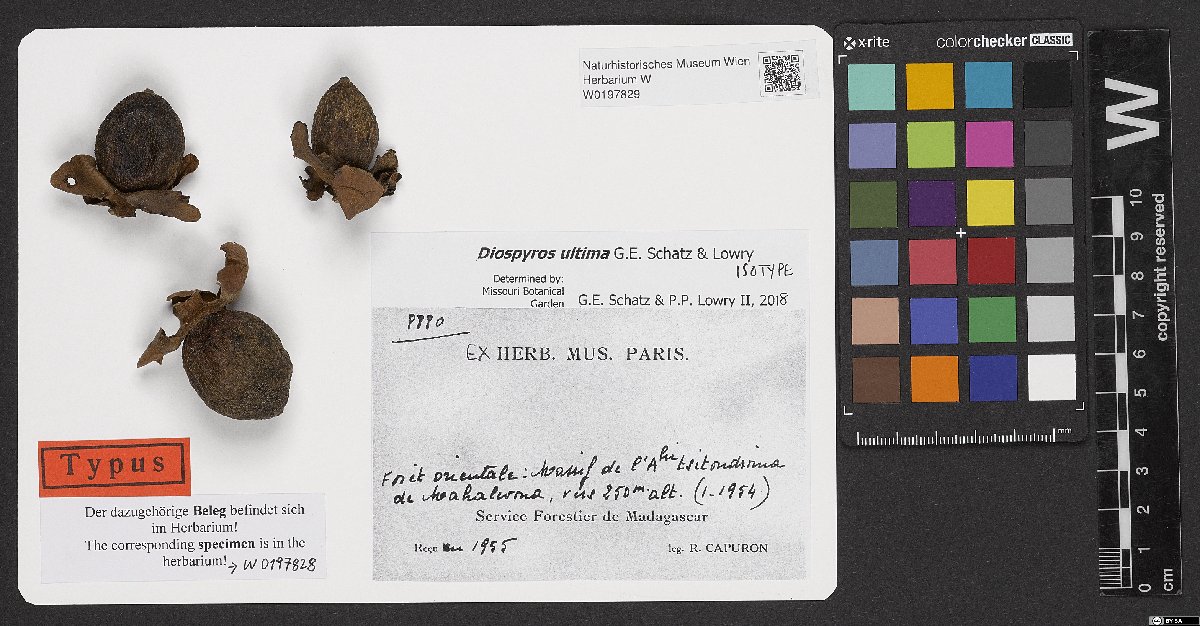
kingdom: Plantae
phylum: Tracheophyta
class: Magnoliopsida
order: Ericales
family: Ebenaceae
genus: Diospyros
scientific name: Diospyros ultima
